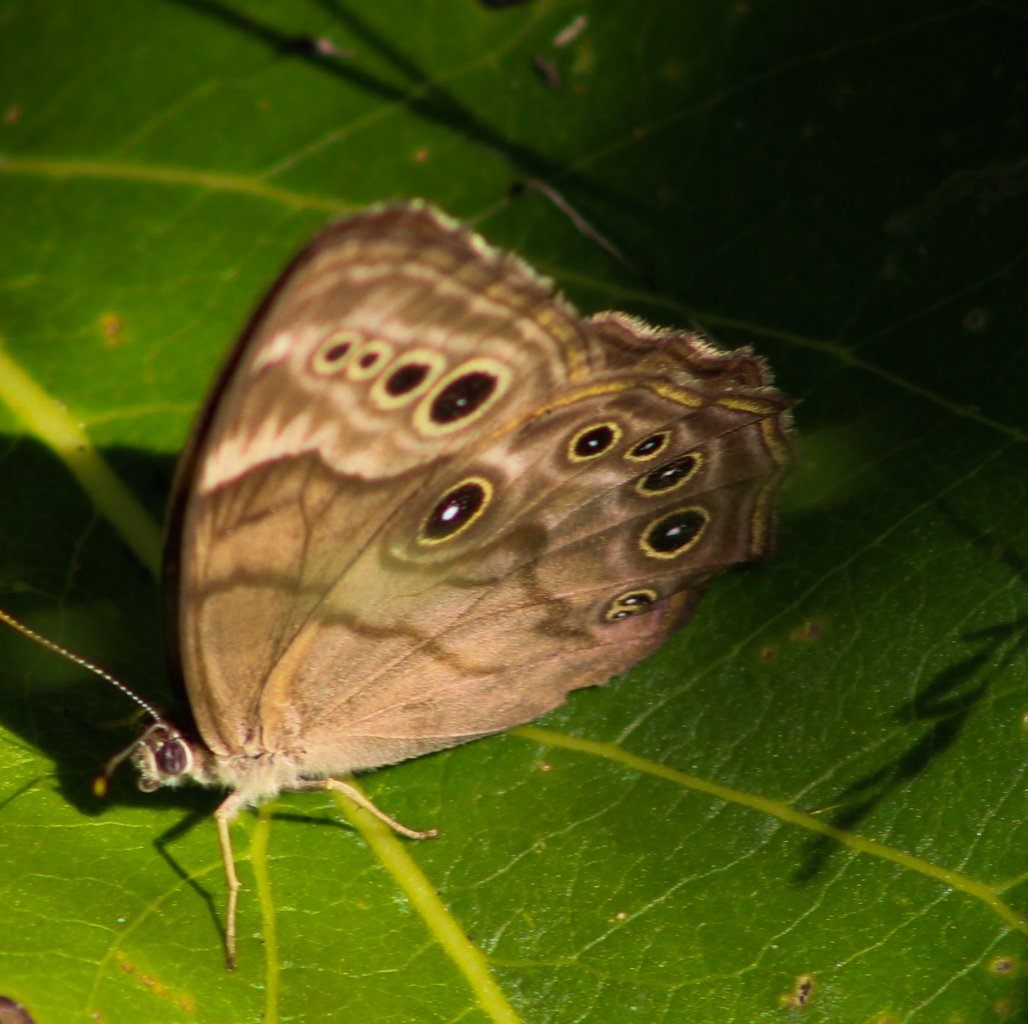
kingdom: Animalia
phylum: Arthropoda
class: Insecta
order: Lepidoptera
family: Nymphalidae
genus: Lethe
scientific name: Lethe anthedon
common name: Northern Pearly-Eye
